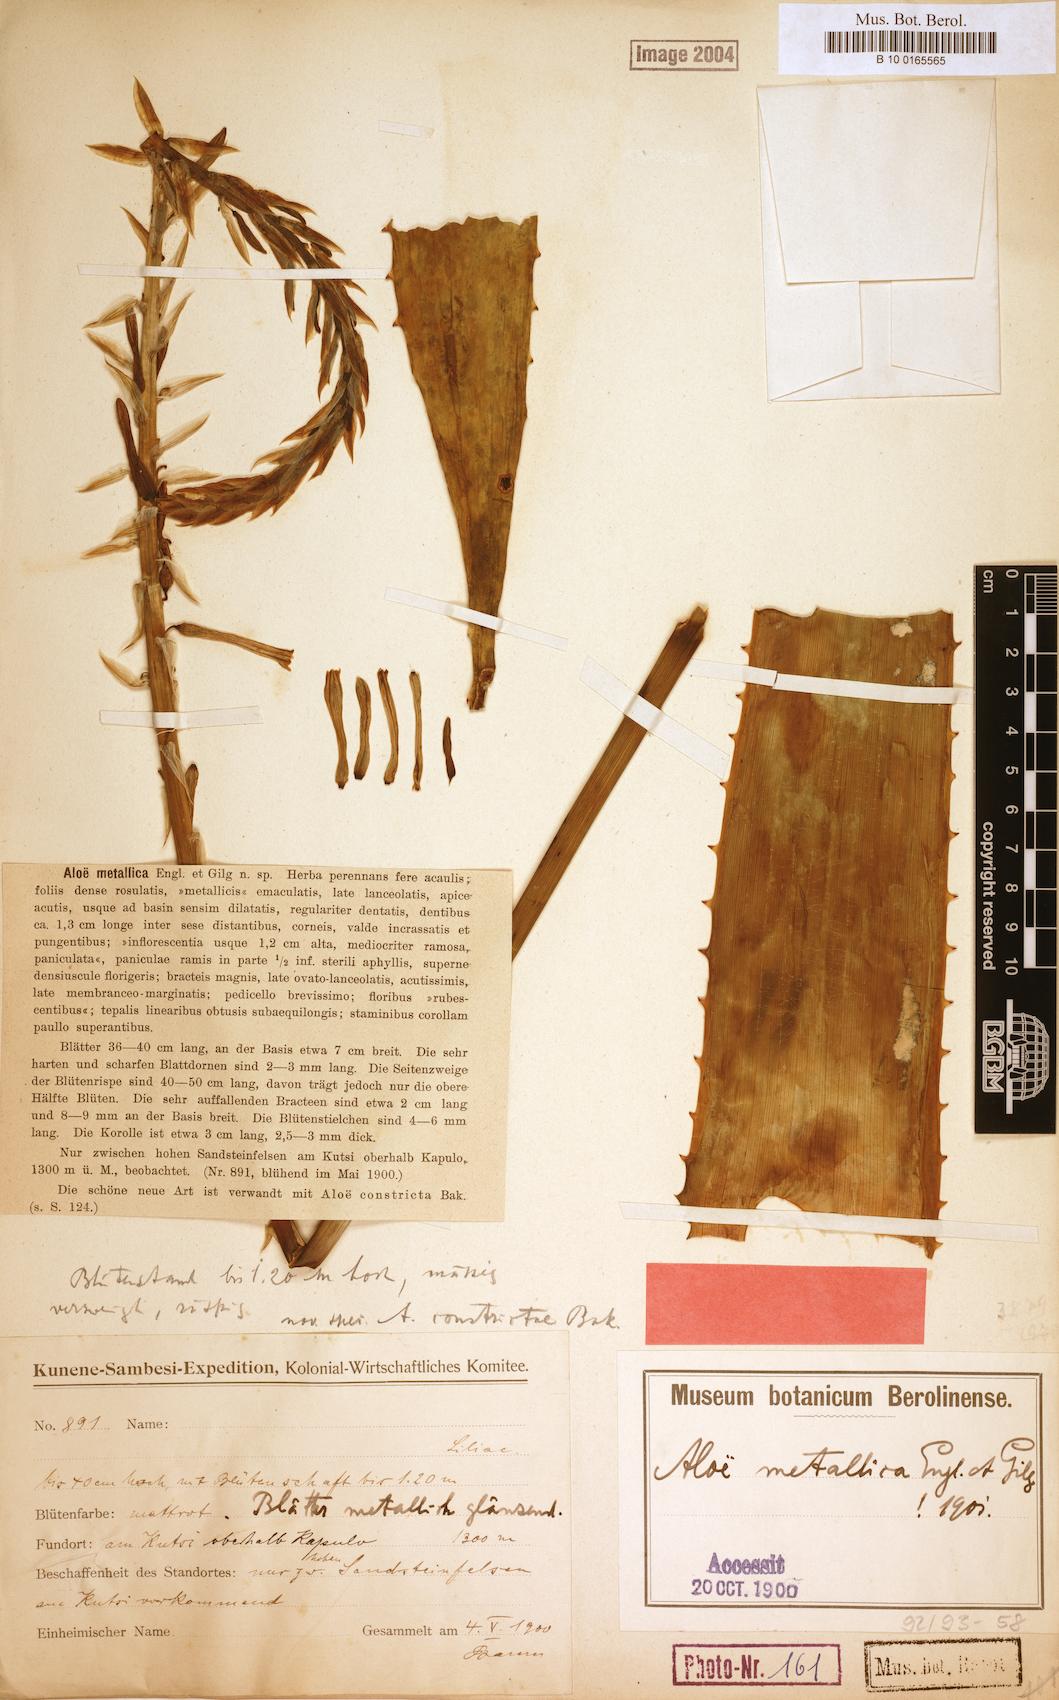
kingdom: Plantae
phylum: Tracheophyta
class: Liliopsida
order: Asparagales
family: Asphodelaceae
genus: Aloe
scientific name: Aloe metallica
